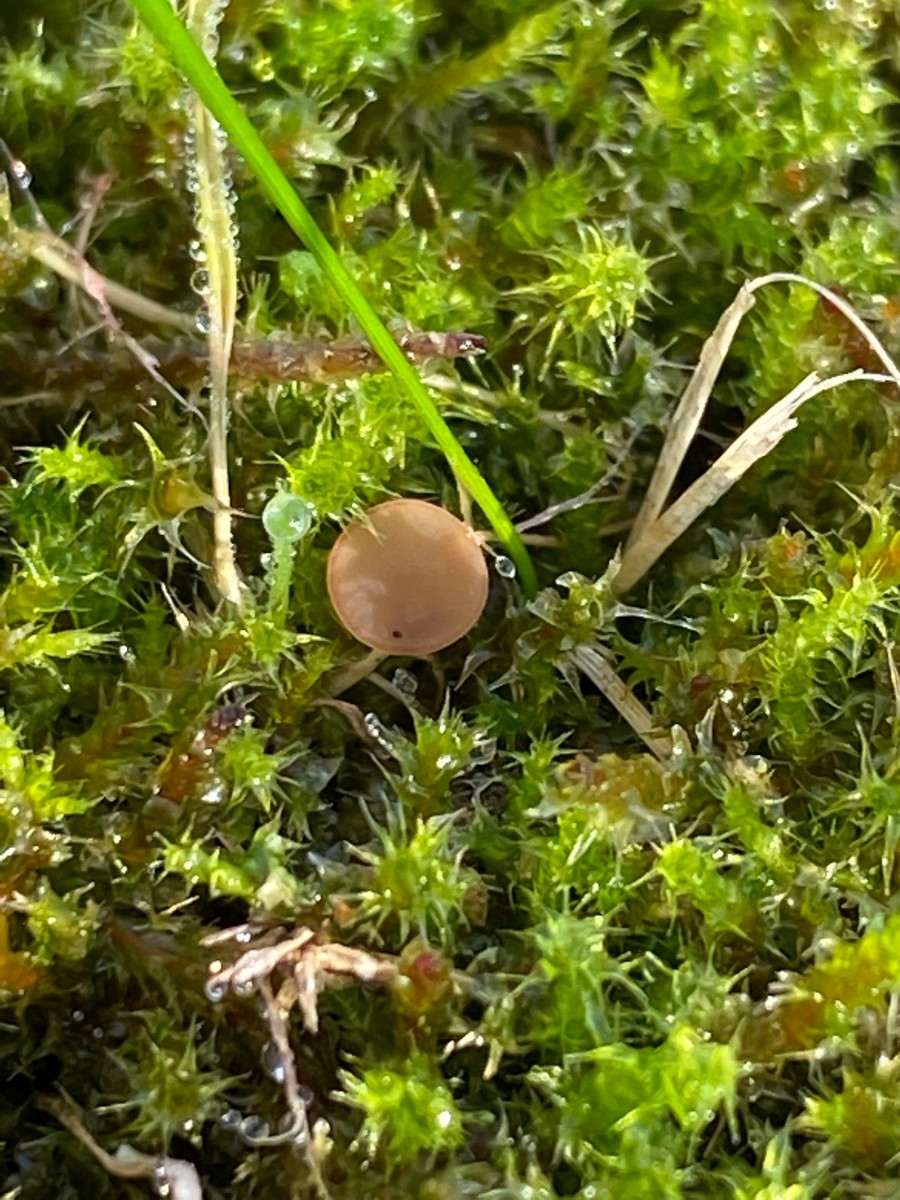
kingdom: Fungi
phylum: Ascomycota
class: Leotiomycetes
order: Helotiales
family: Sclerotiniaceae
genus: Sclerotinia
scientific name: Sclerotinia trifoliorum
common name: ærte-knoldskive
